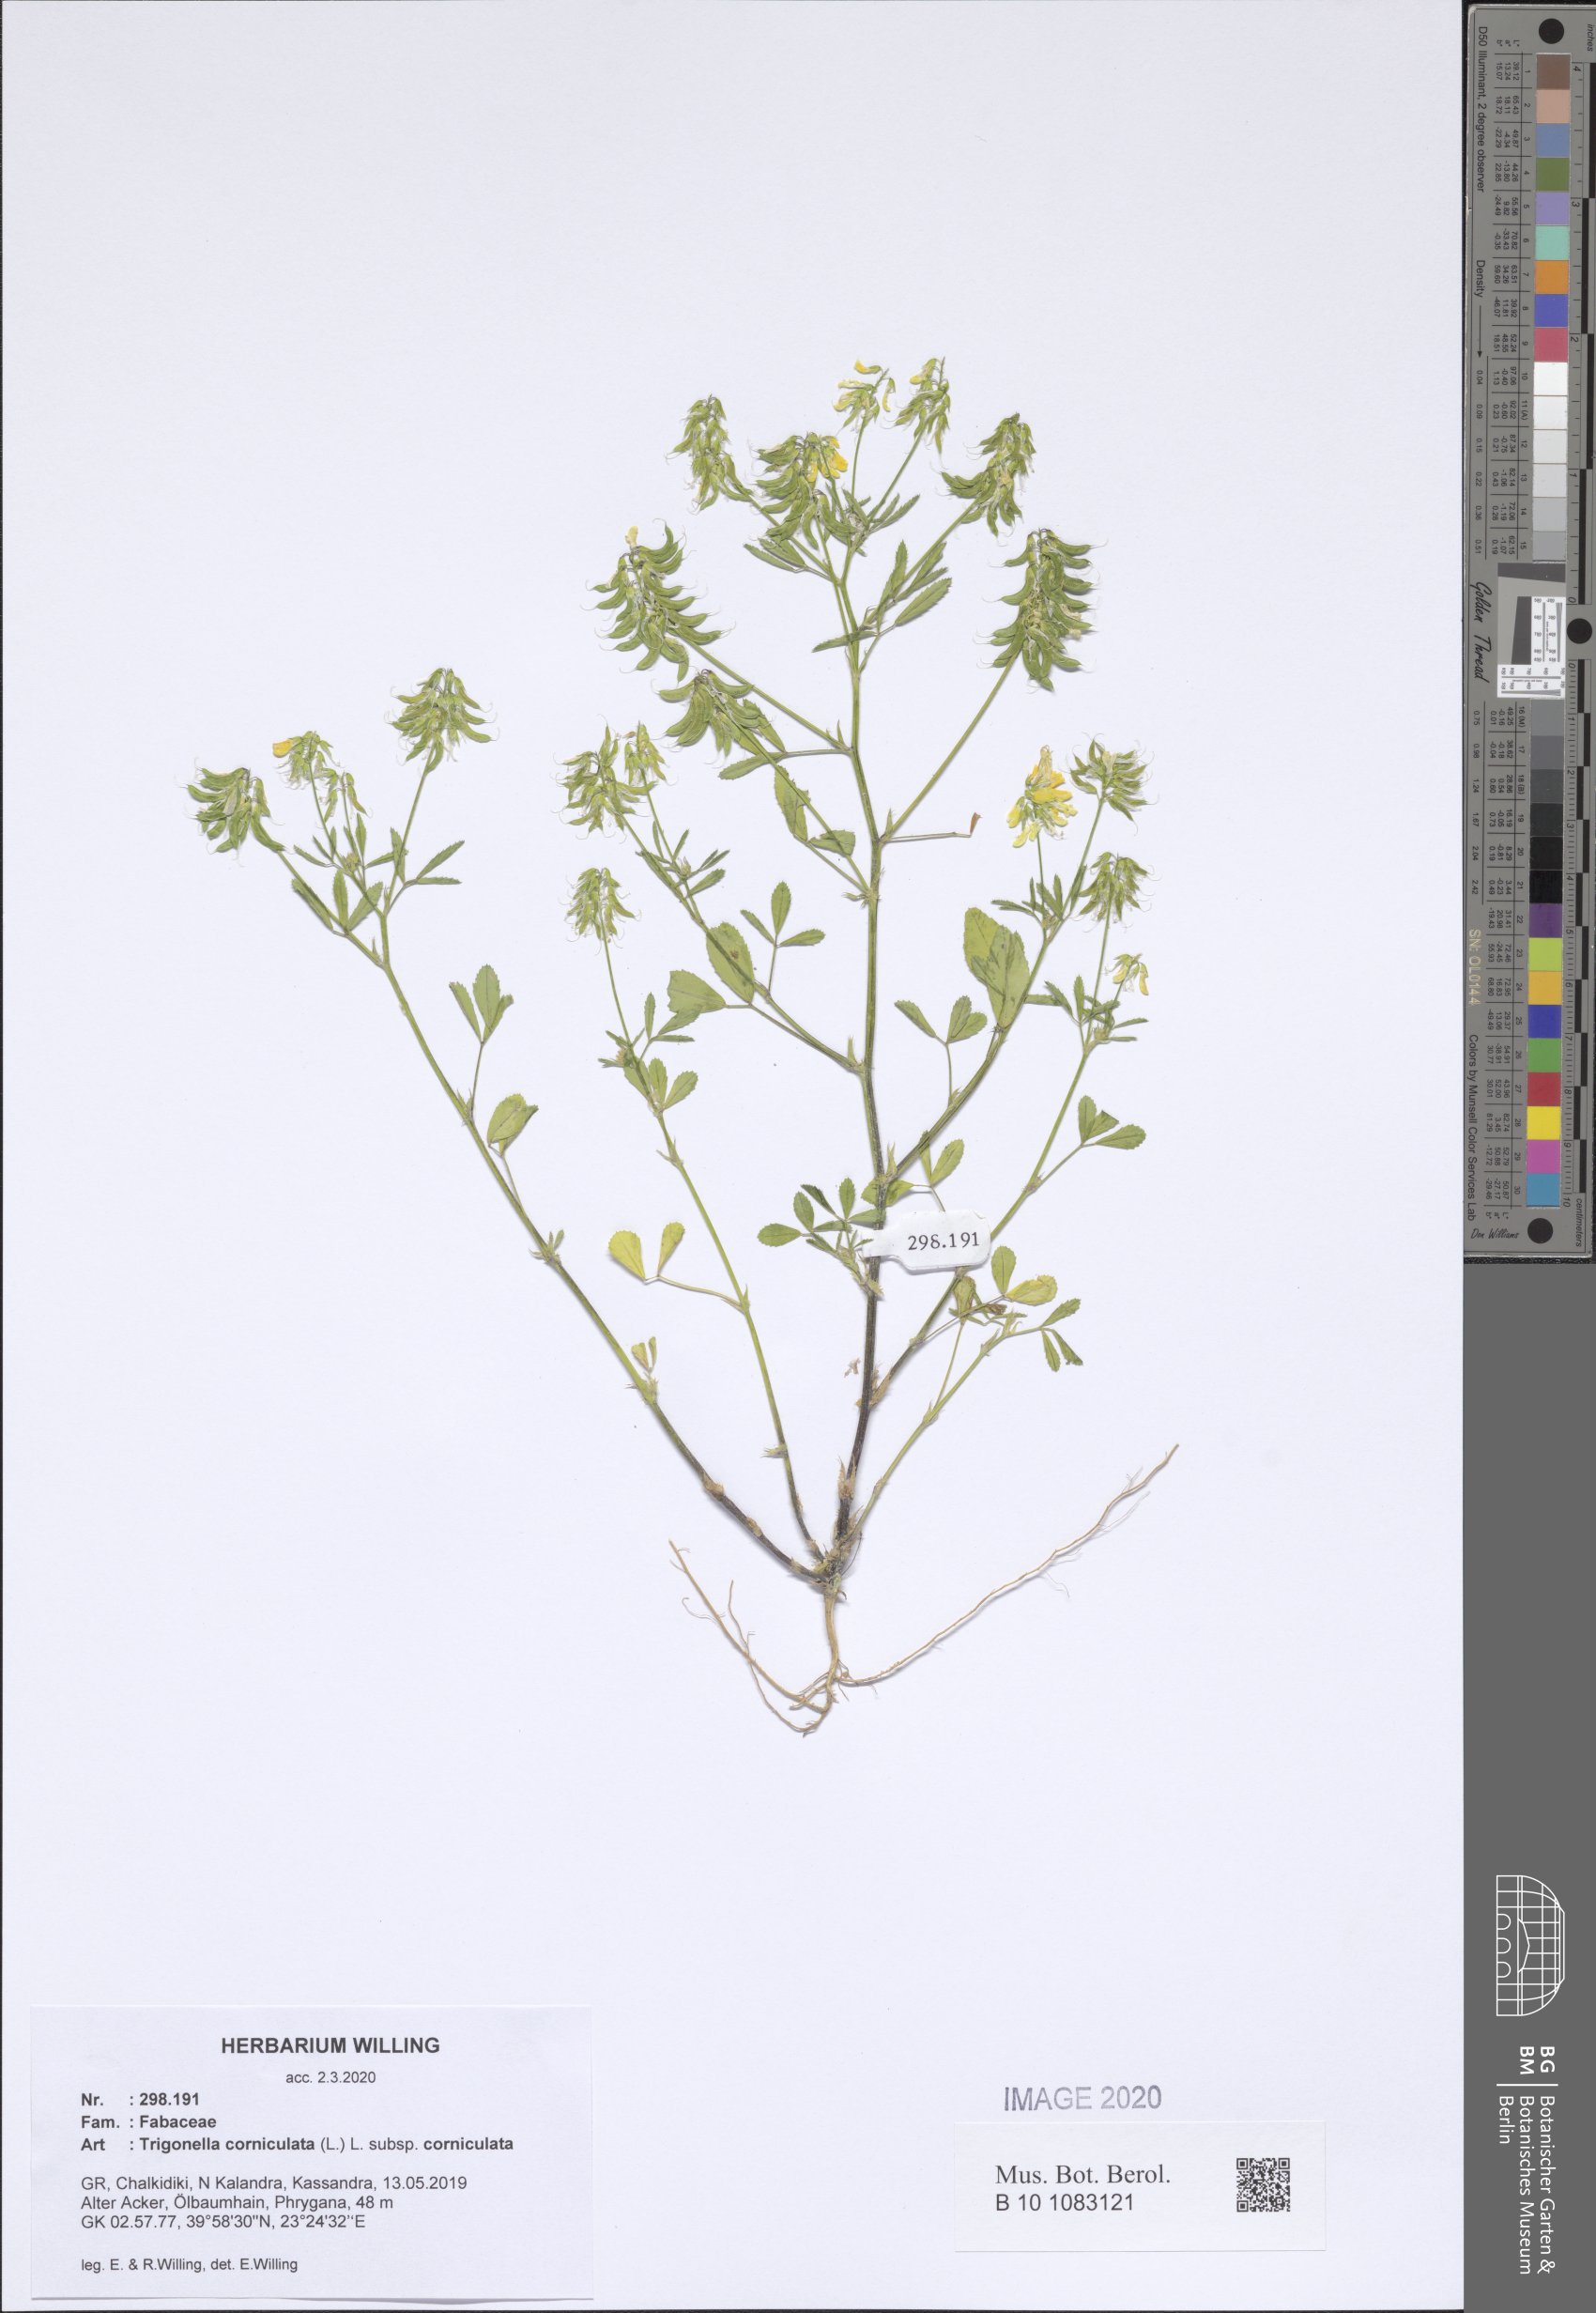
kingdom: Plantae
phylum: Tracheophyta
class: Magnoliopsida
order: Fabales
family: Fabaceae
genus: Trigonella
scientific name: Trigonella corniculata
